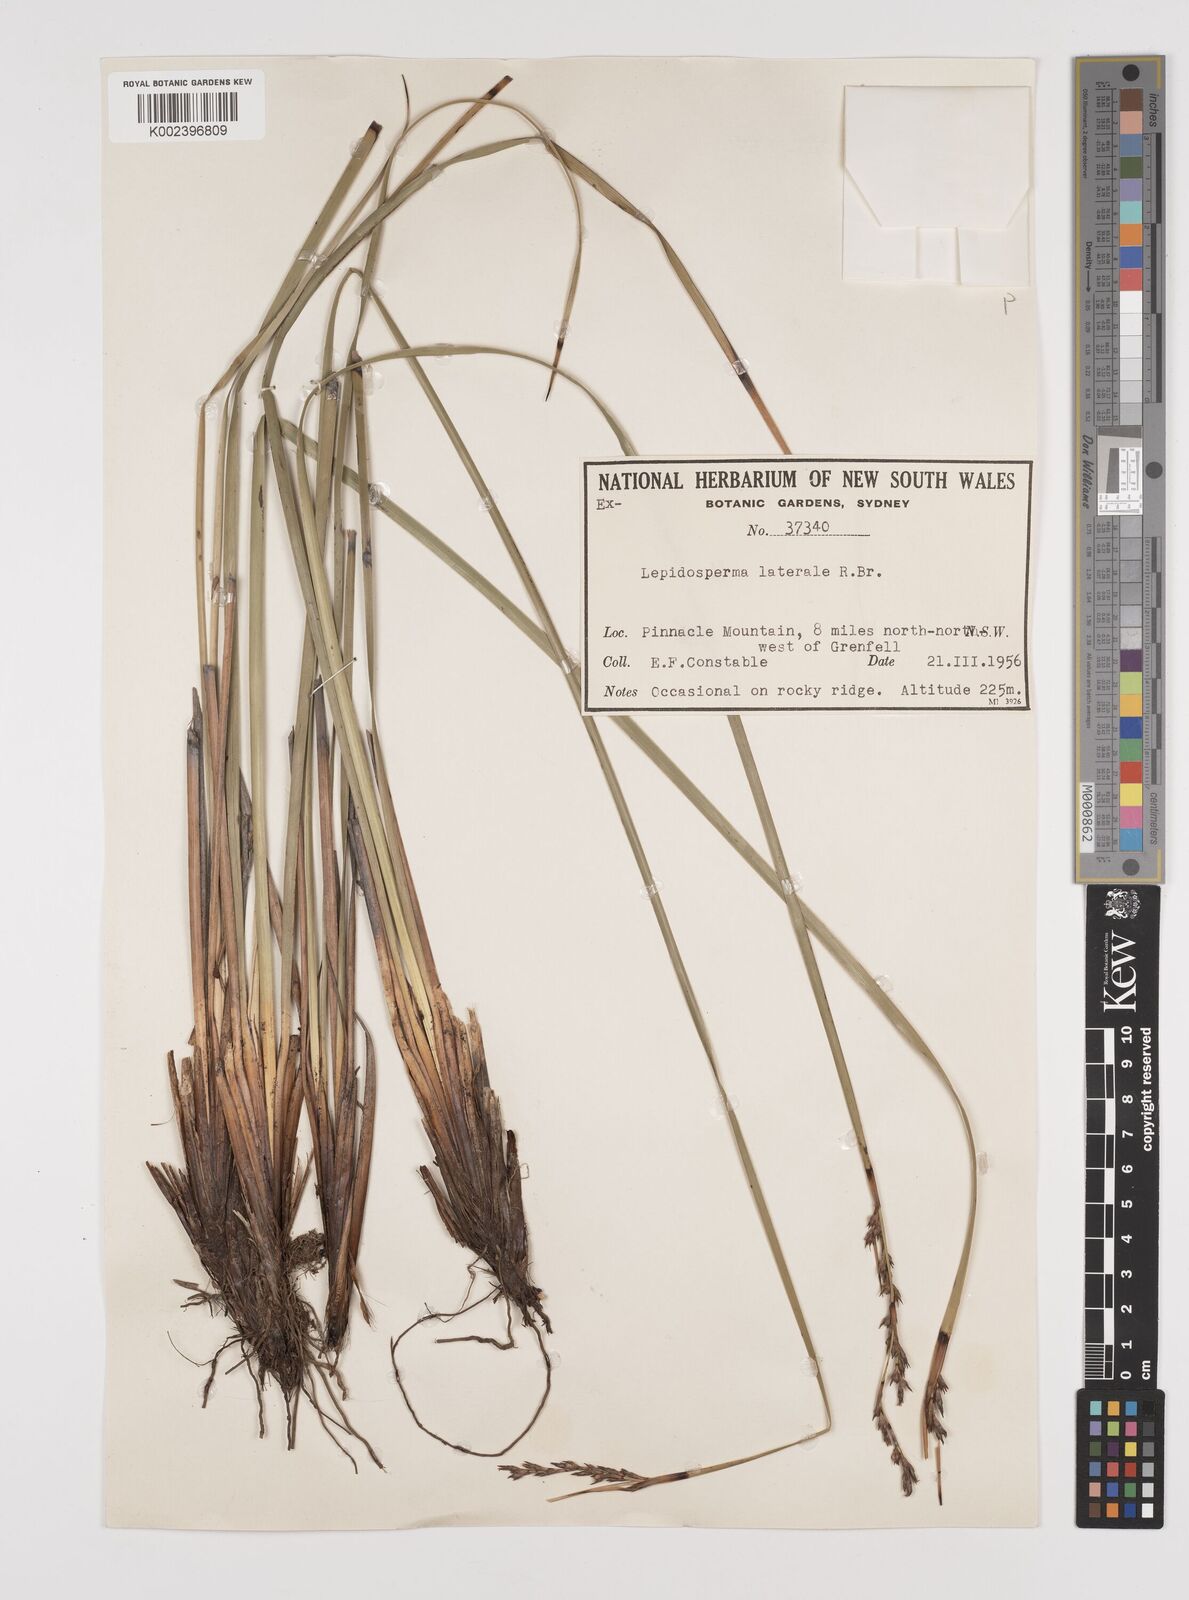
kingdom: Plantae
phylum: Tracheophyta
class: Liliopsida
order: Poales
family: Cyperaceae
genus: Lepidosperma
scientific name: Lepidosperma laterale
